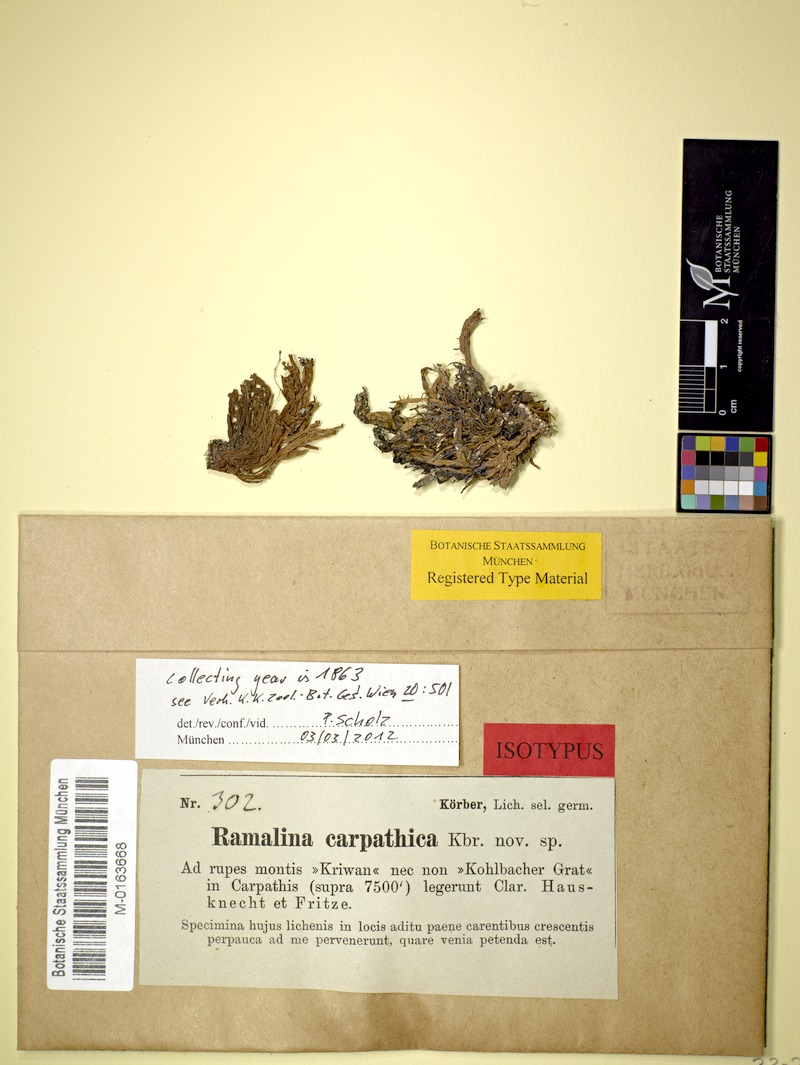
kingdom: Fungi
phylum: Ascomycota
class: Lecanoromycetes
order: Lecanorales
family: Ramalinaceae
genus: Ramalina
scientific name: Ramalina carpatica
